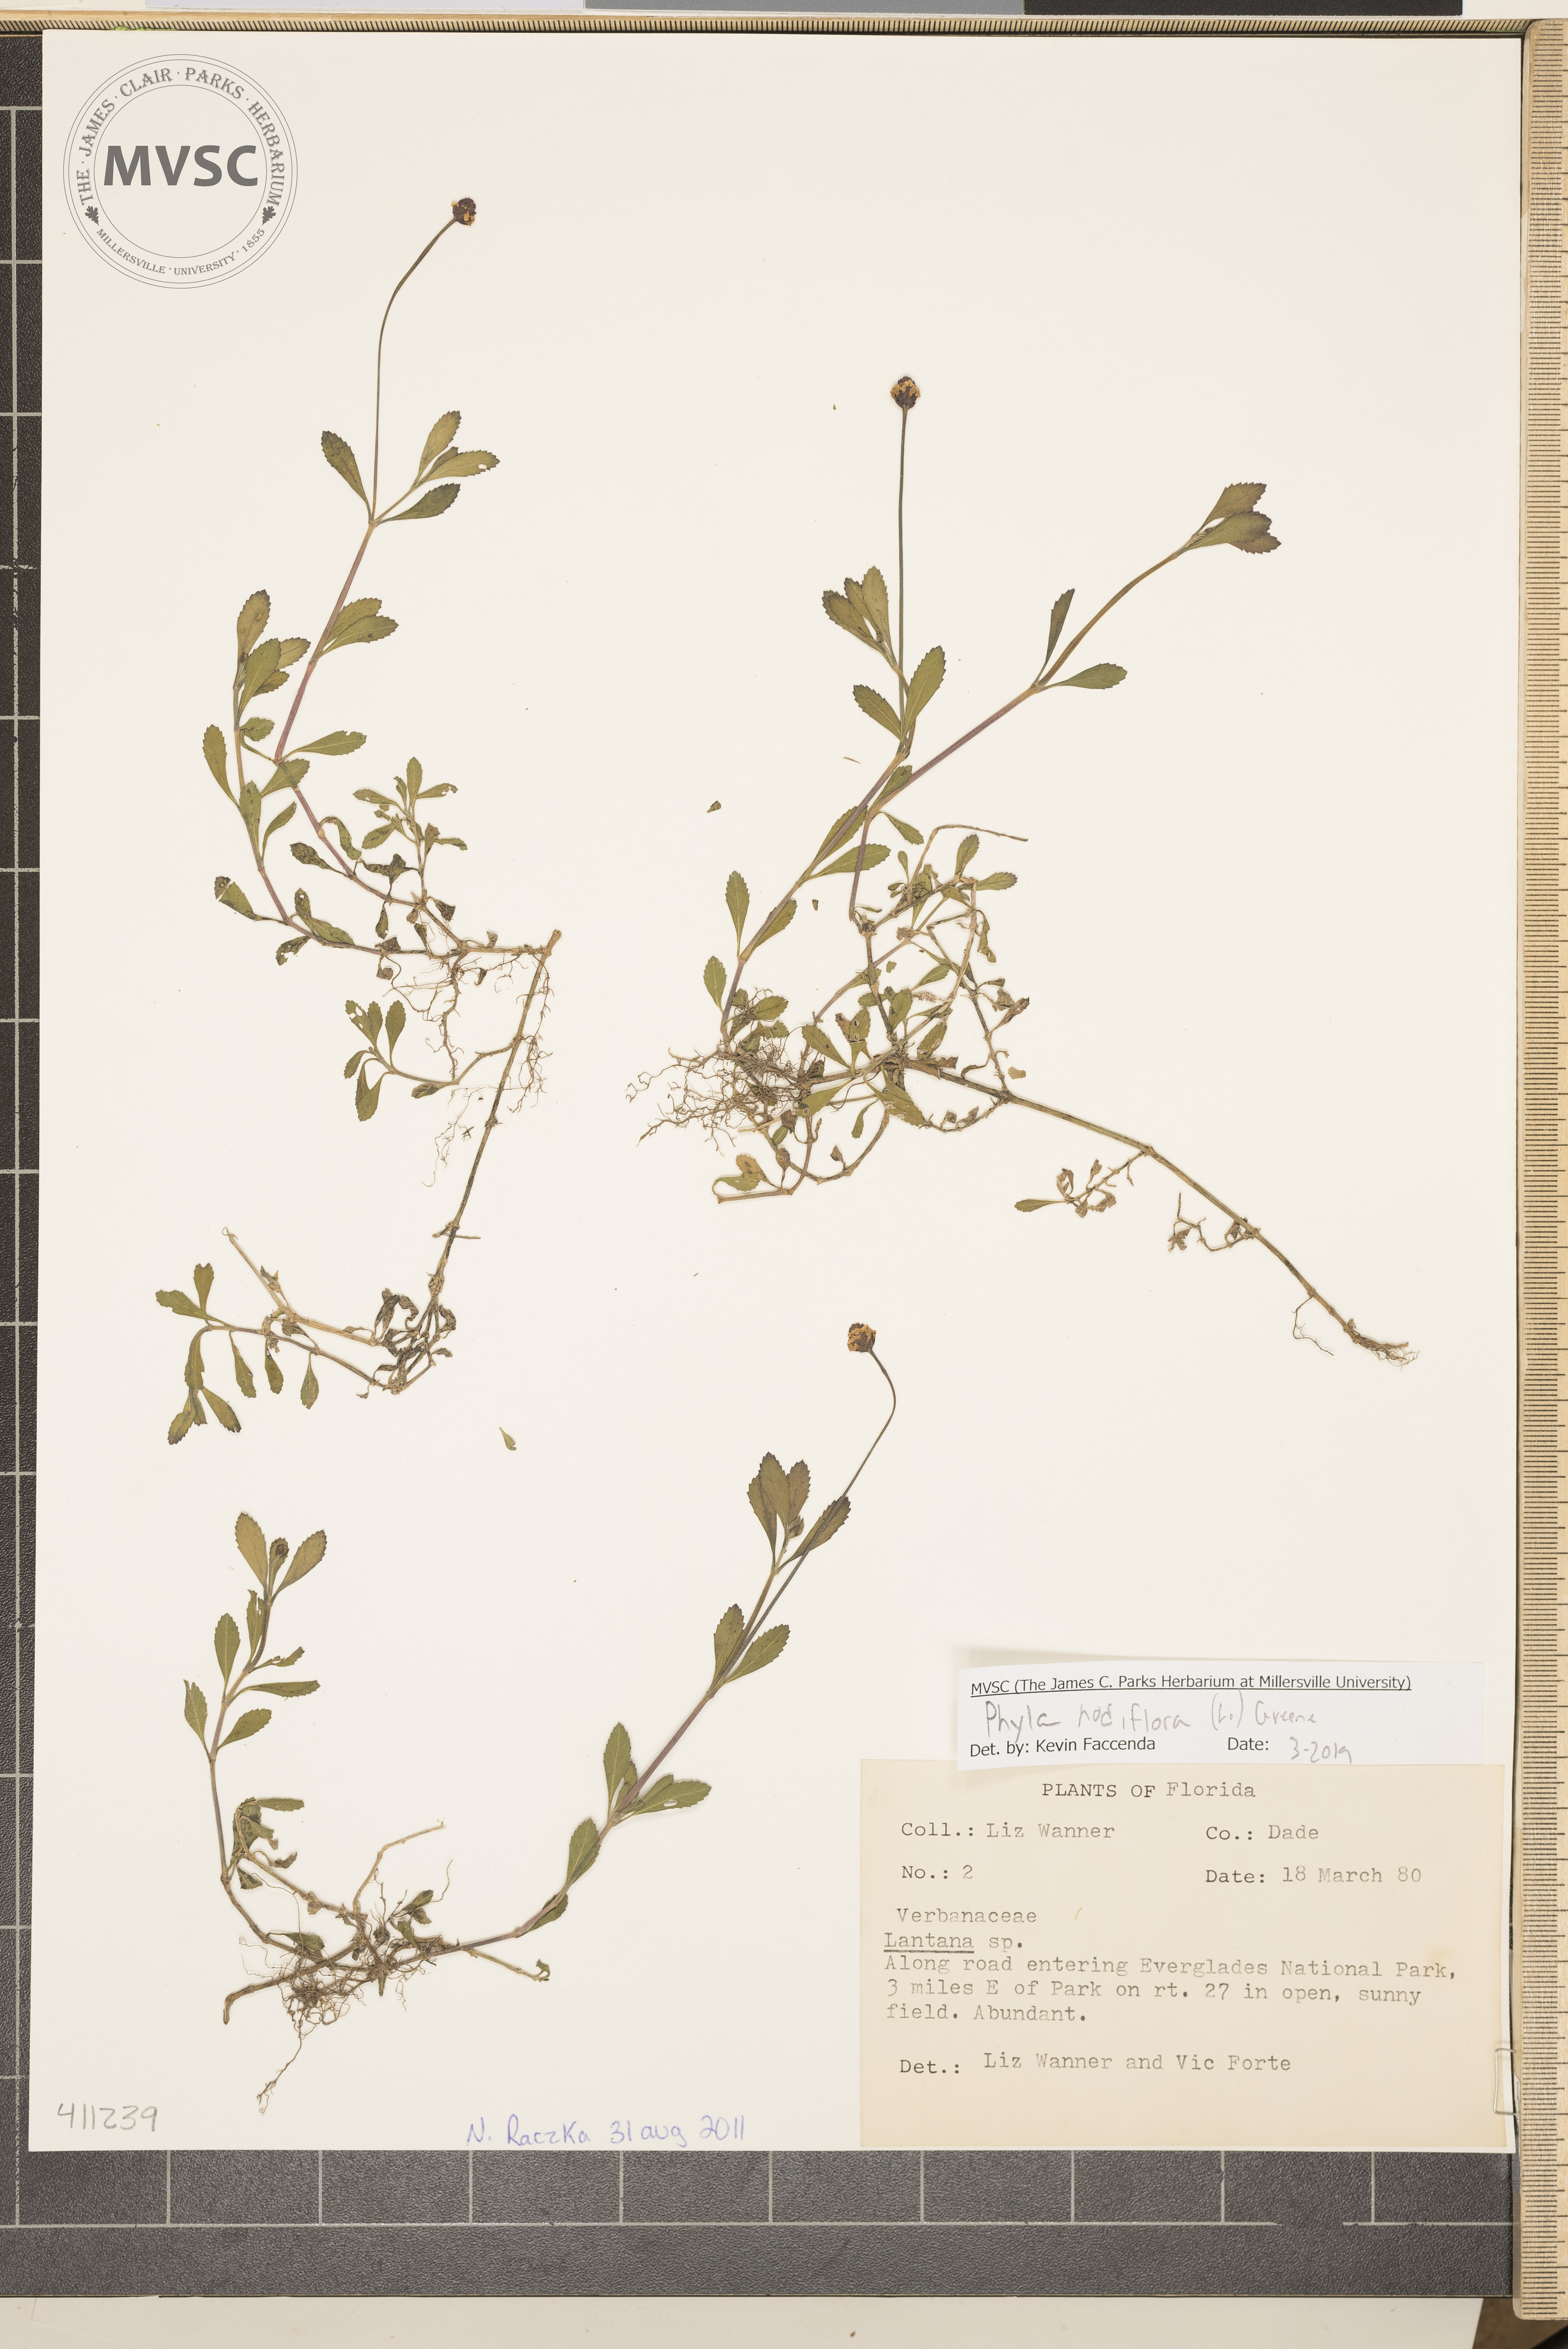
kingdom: Plantae
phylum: Tracheophyta
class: Magnoliopsida
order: Lamiales
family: Verbenaceae
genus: Phyla
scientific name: Phyla nodiflora
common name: Frogfruit
